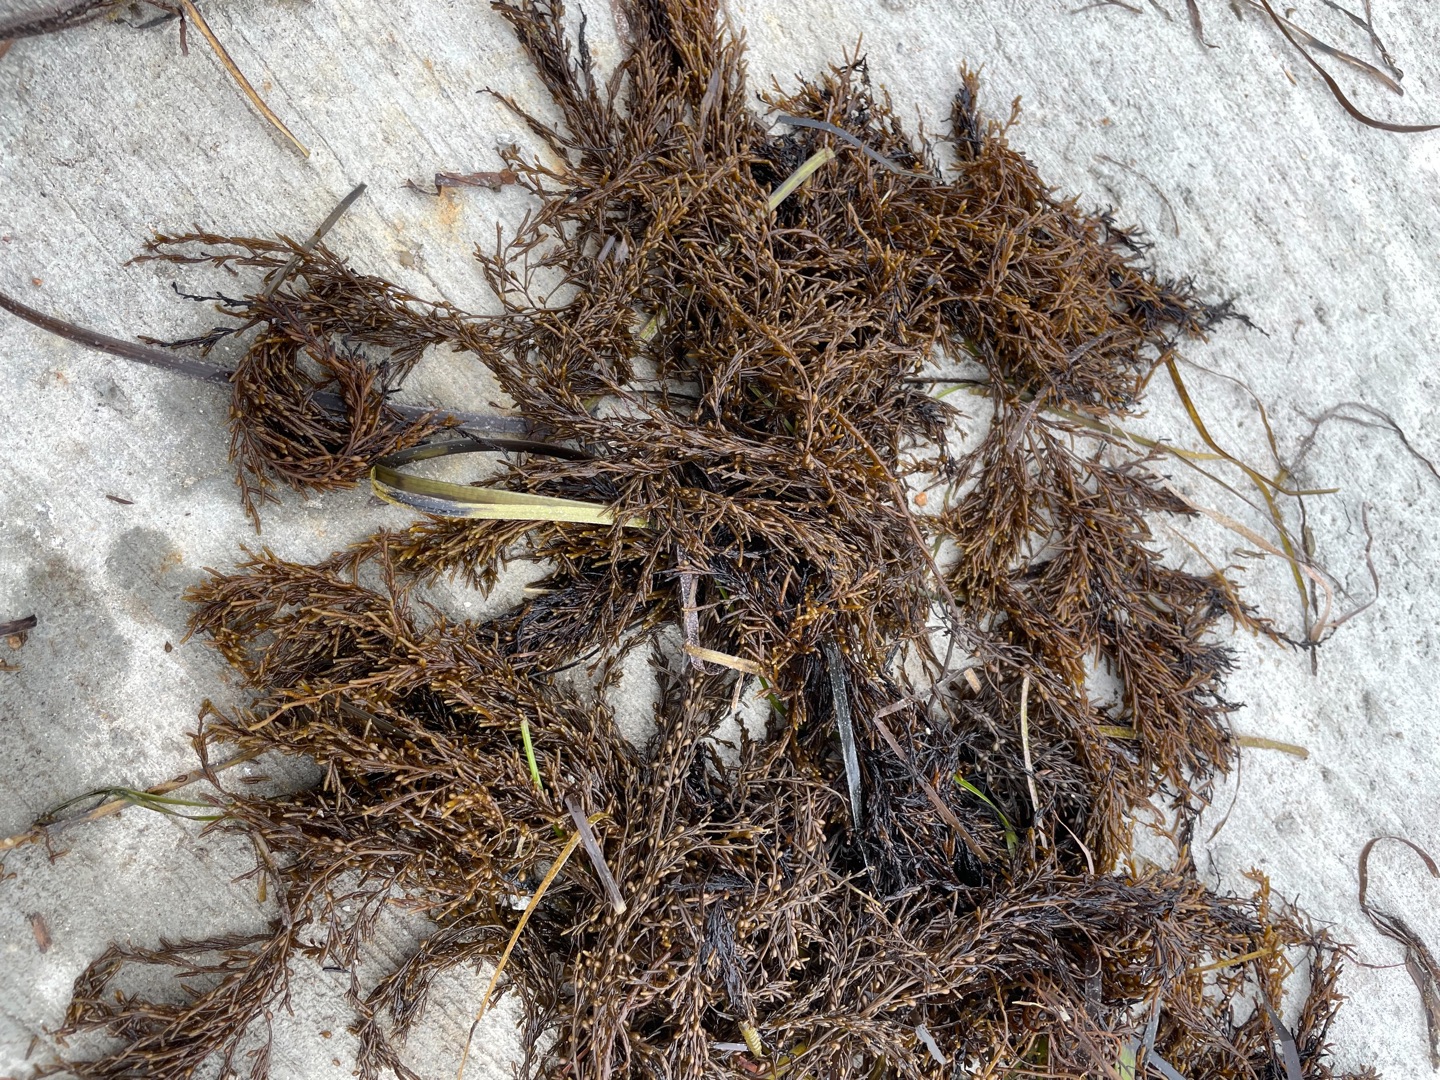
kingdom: Chromista
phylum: Ochrophyta
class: Phaeophyceae
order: Fucales
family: Sargassaceae
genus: Sargassum
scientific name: Sargassum muticum
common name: Butblæret sargassotang
